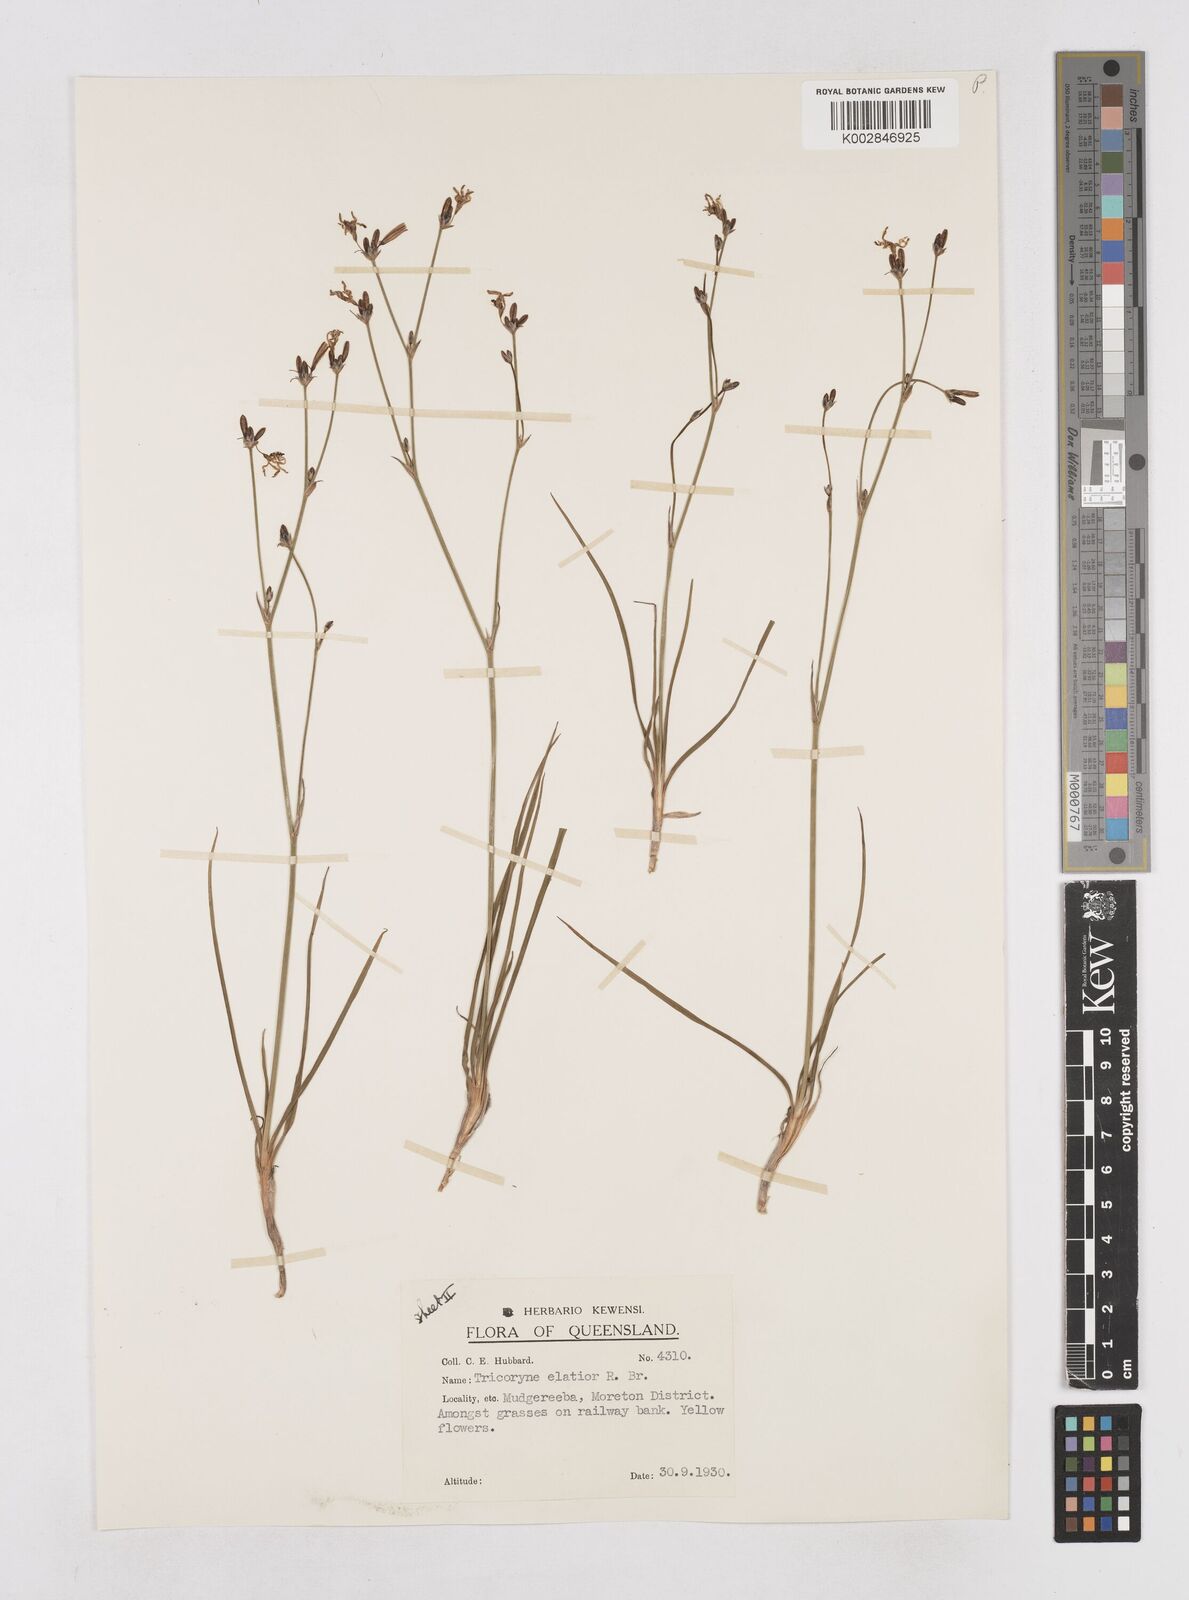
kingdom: Plantae
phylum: Tracheophyta
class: Liliopsida
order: Asparagales
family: Asphodelaceae
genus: Tricoryne
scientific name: Tricoryne elatior
